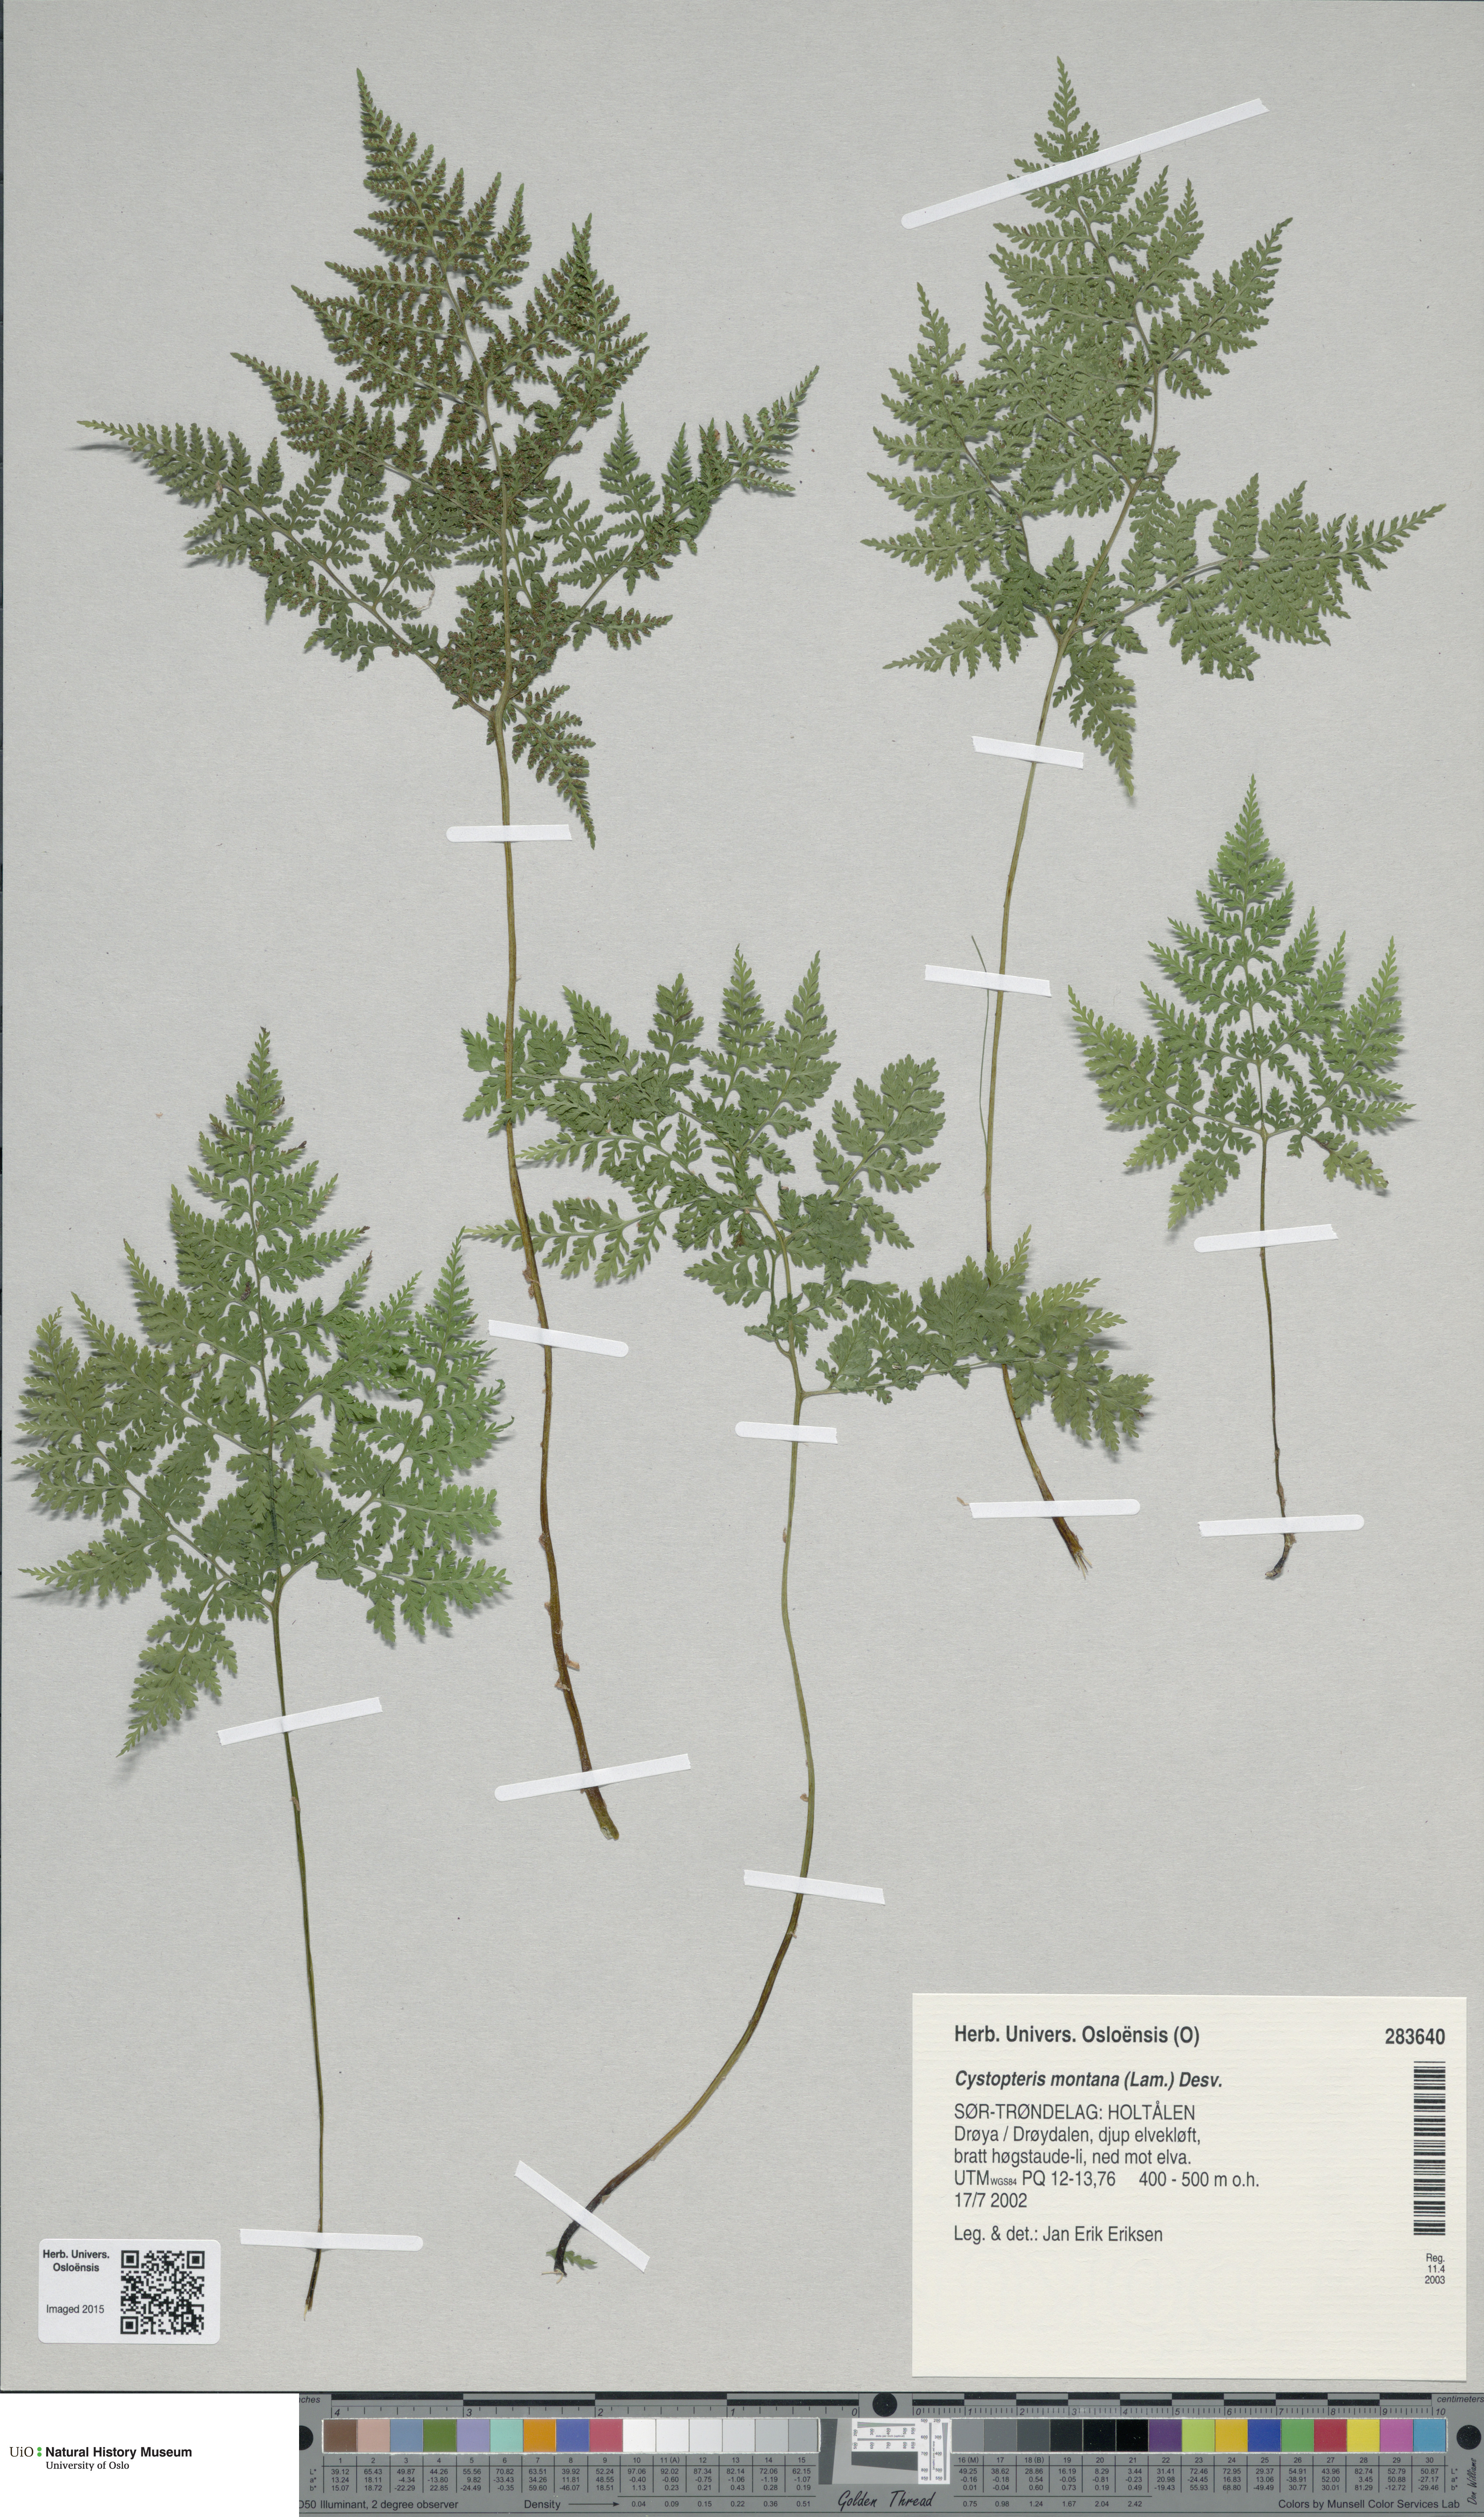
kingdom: Plantae
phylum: Tracheophyta
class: Polypodiopsida
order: Polypodiales
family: Cystopteridaceae
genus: Cystopteris
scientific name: Cystopteris montana
